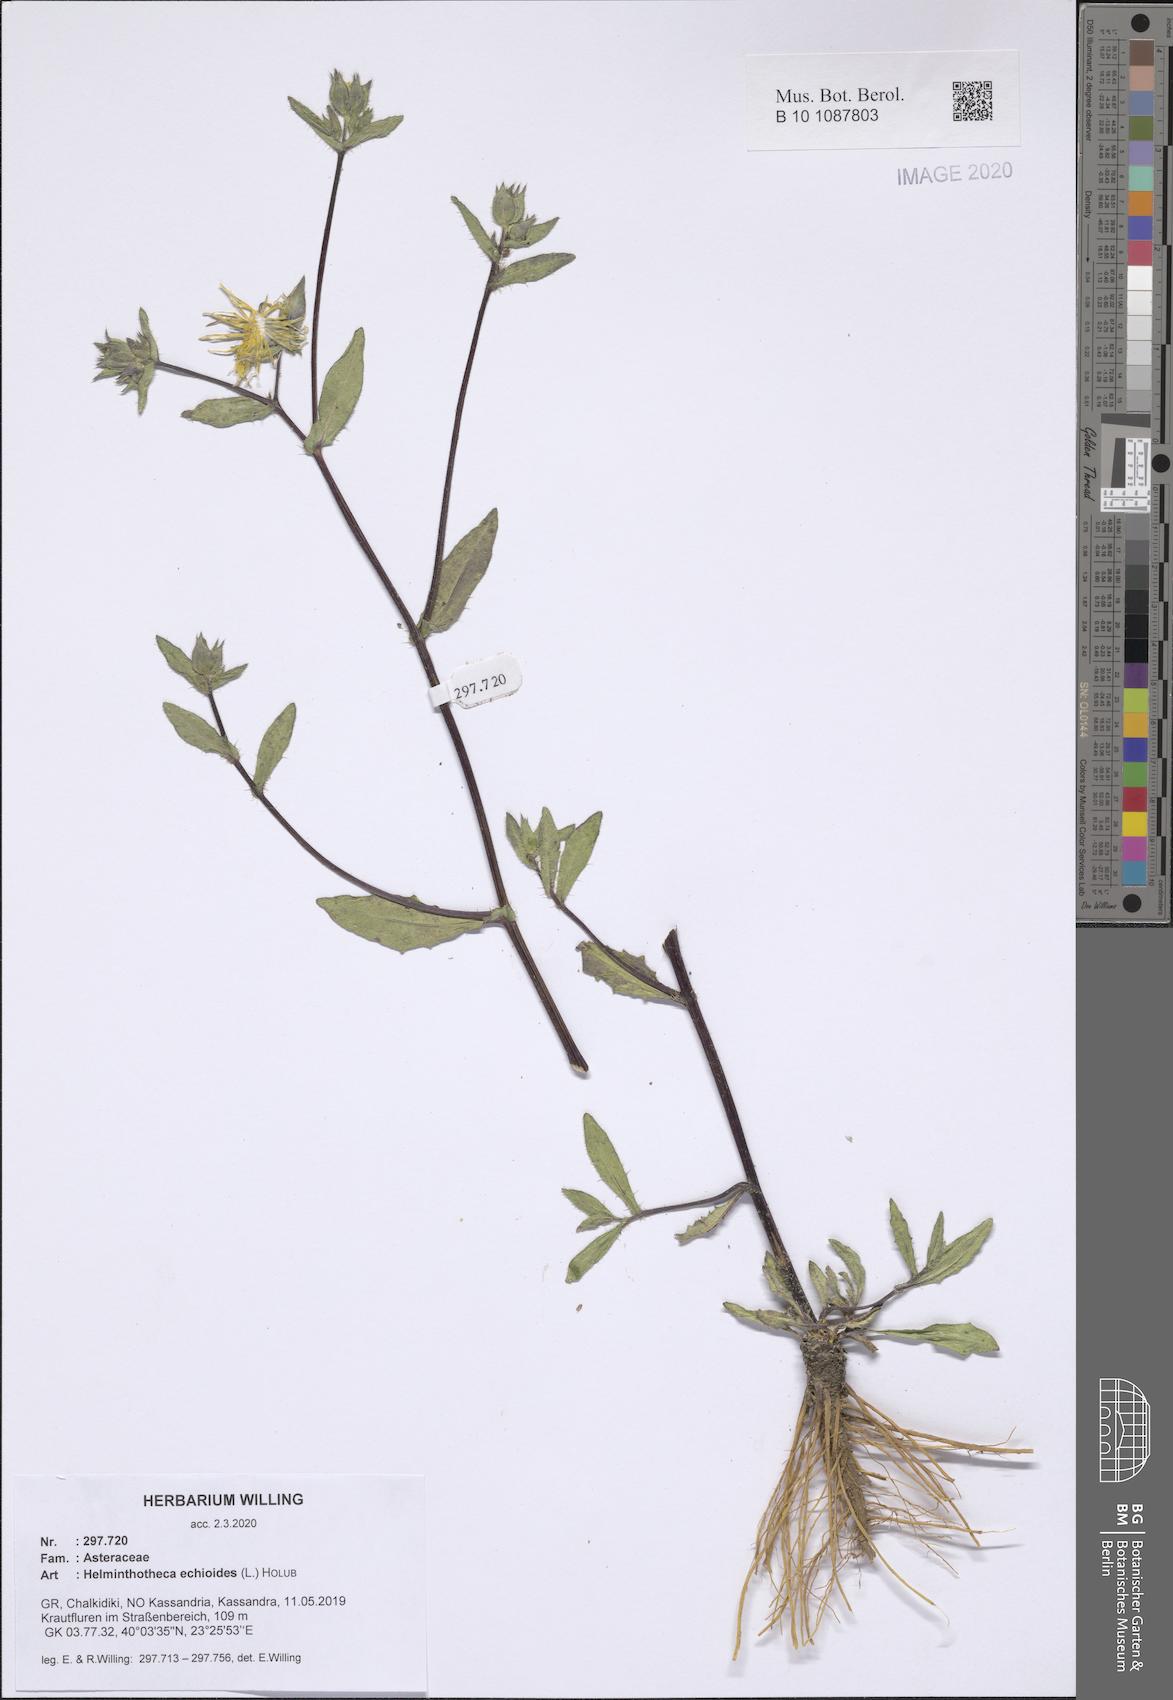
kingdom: Plantae
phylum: Tracheophyta
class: Magnoliopsida
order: Asterales
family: Asteraceae
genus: Helminthotheca
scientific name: Helminthotheca echioides
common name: Ox-tongue
